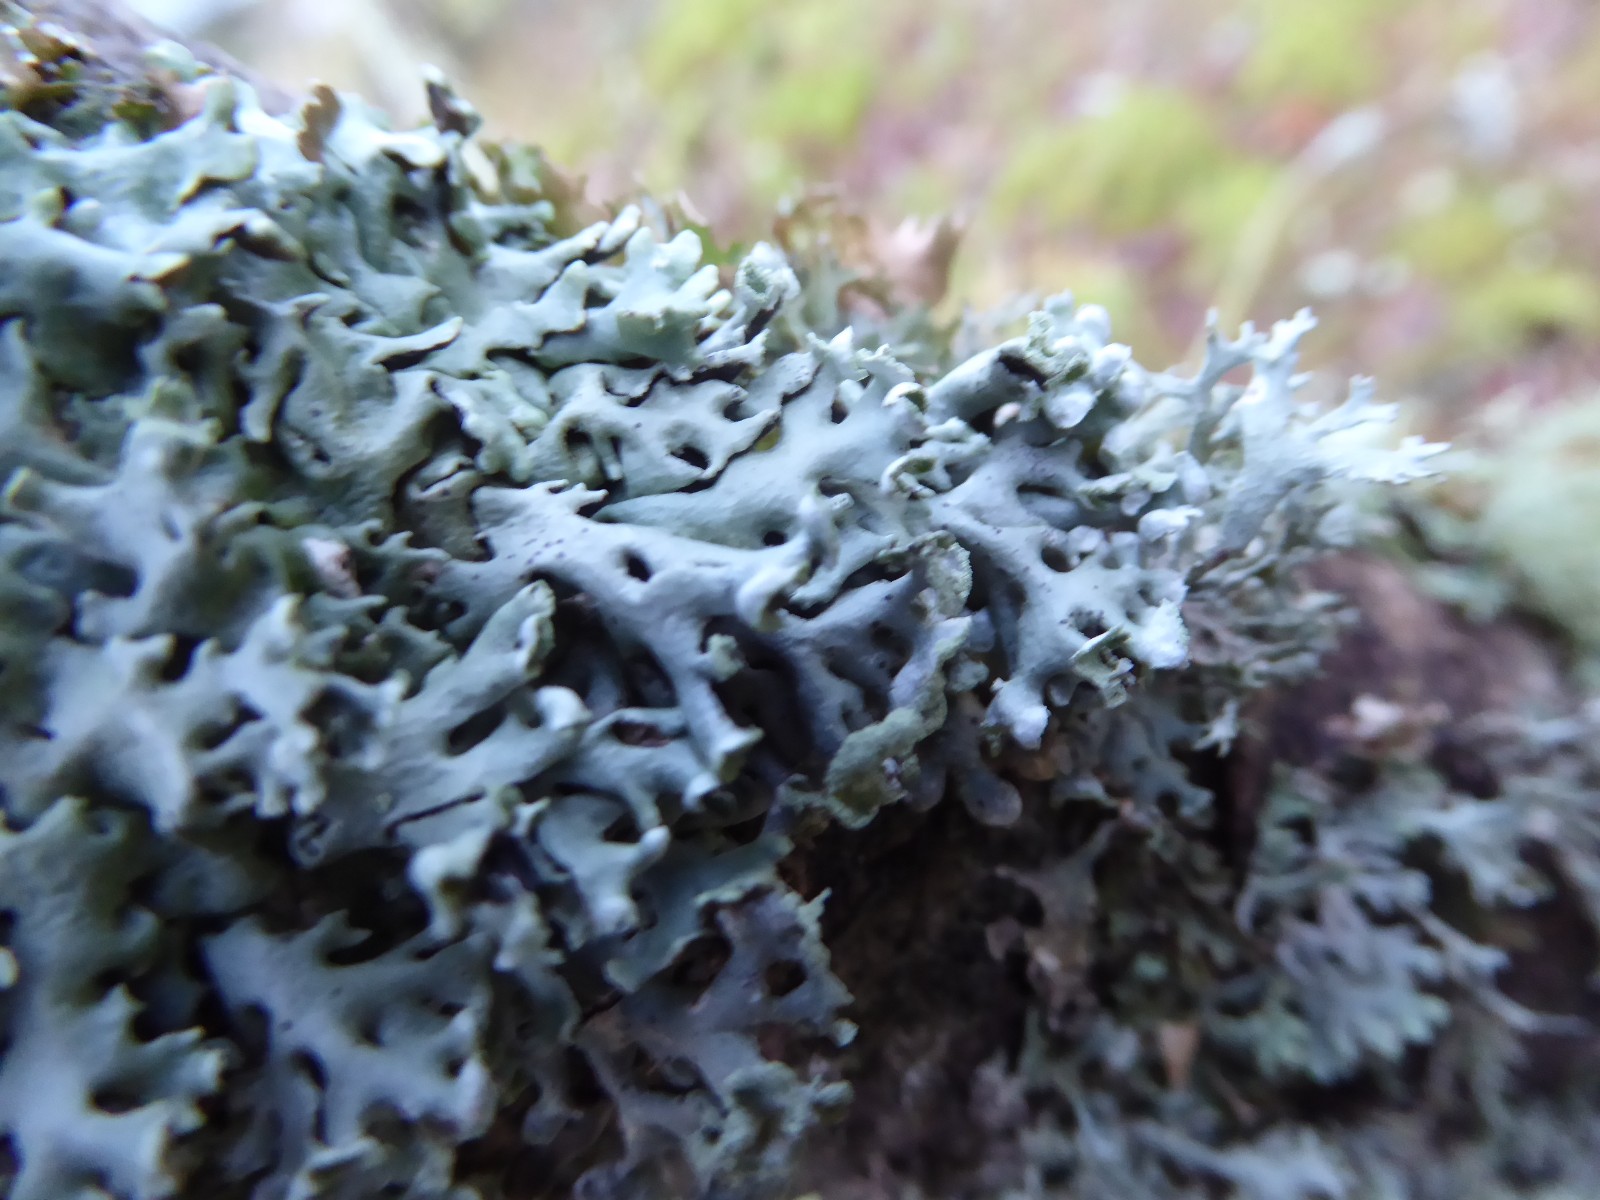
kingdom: Fungi
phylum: Ascomycota
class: Lecanoromycetes
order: Lecanorales
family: Parmeliaceae
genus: Hypogymnia
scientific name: Hypogymnia physodes
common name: almindelig kvistlav
